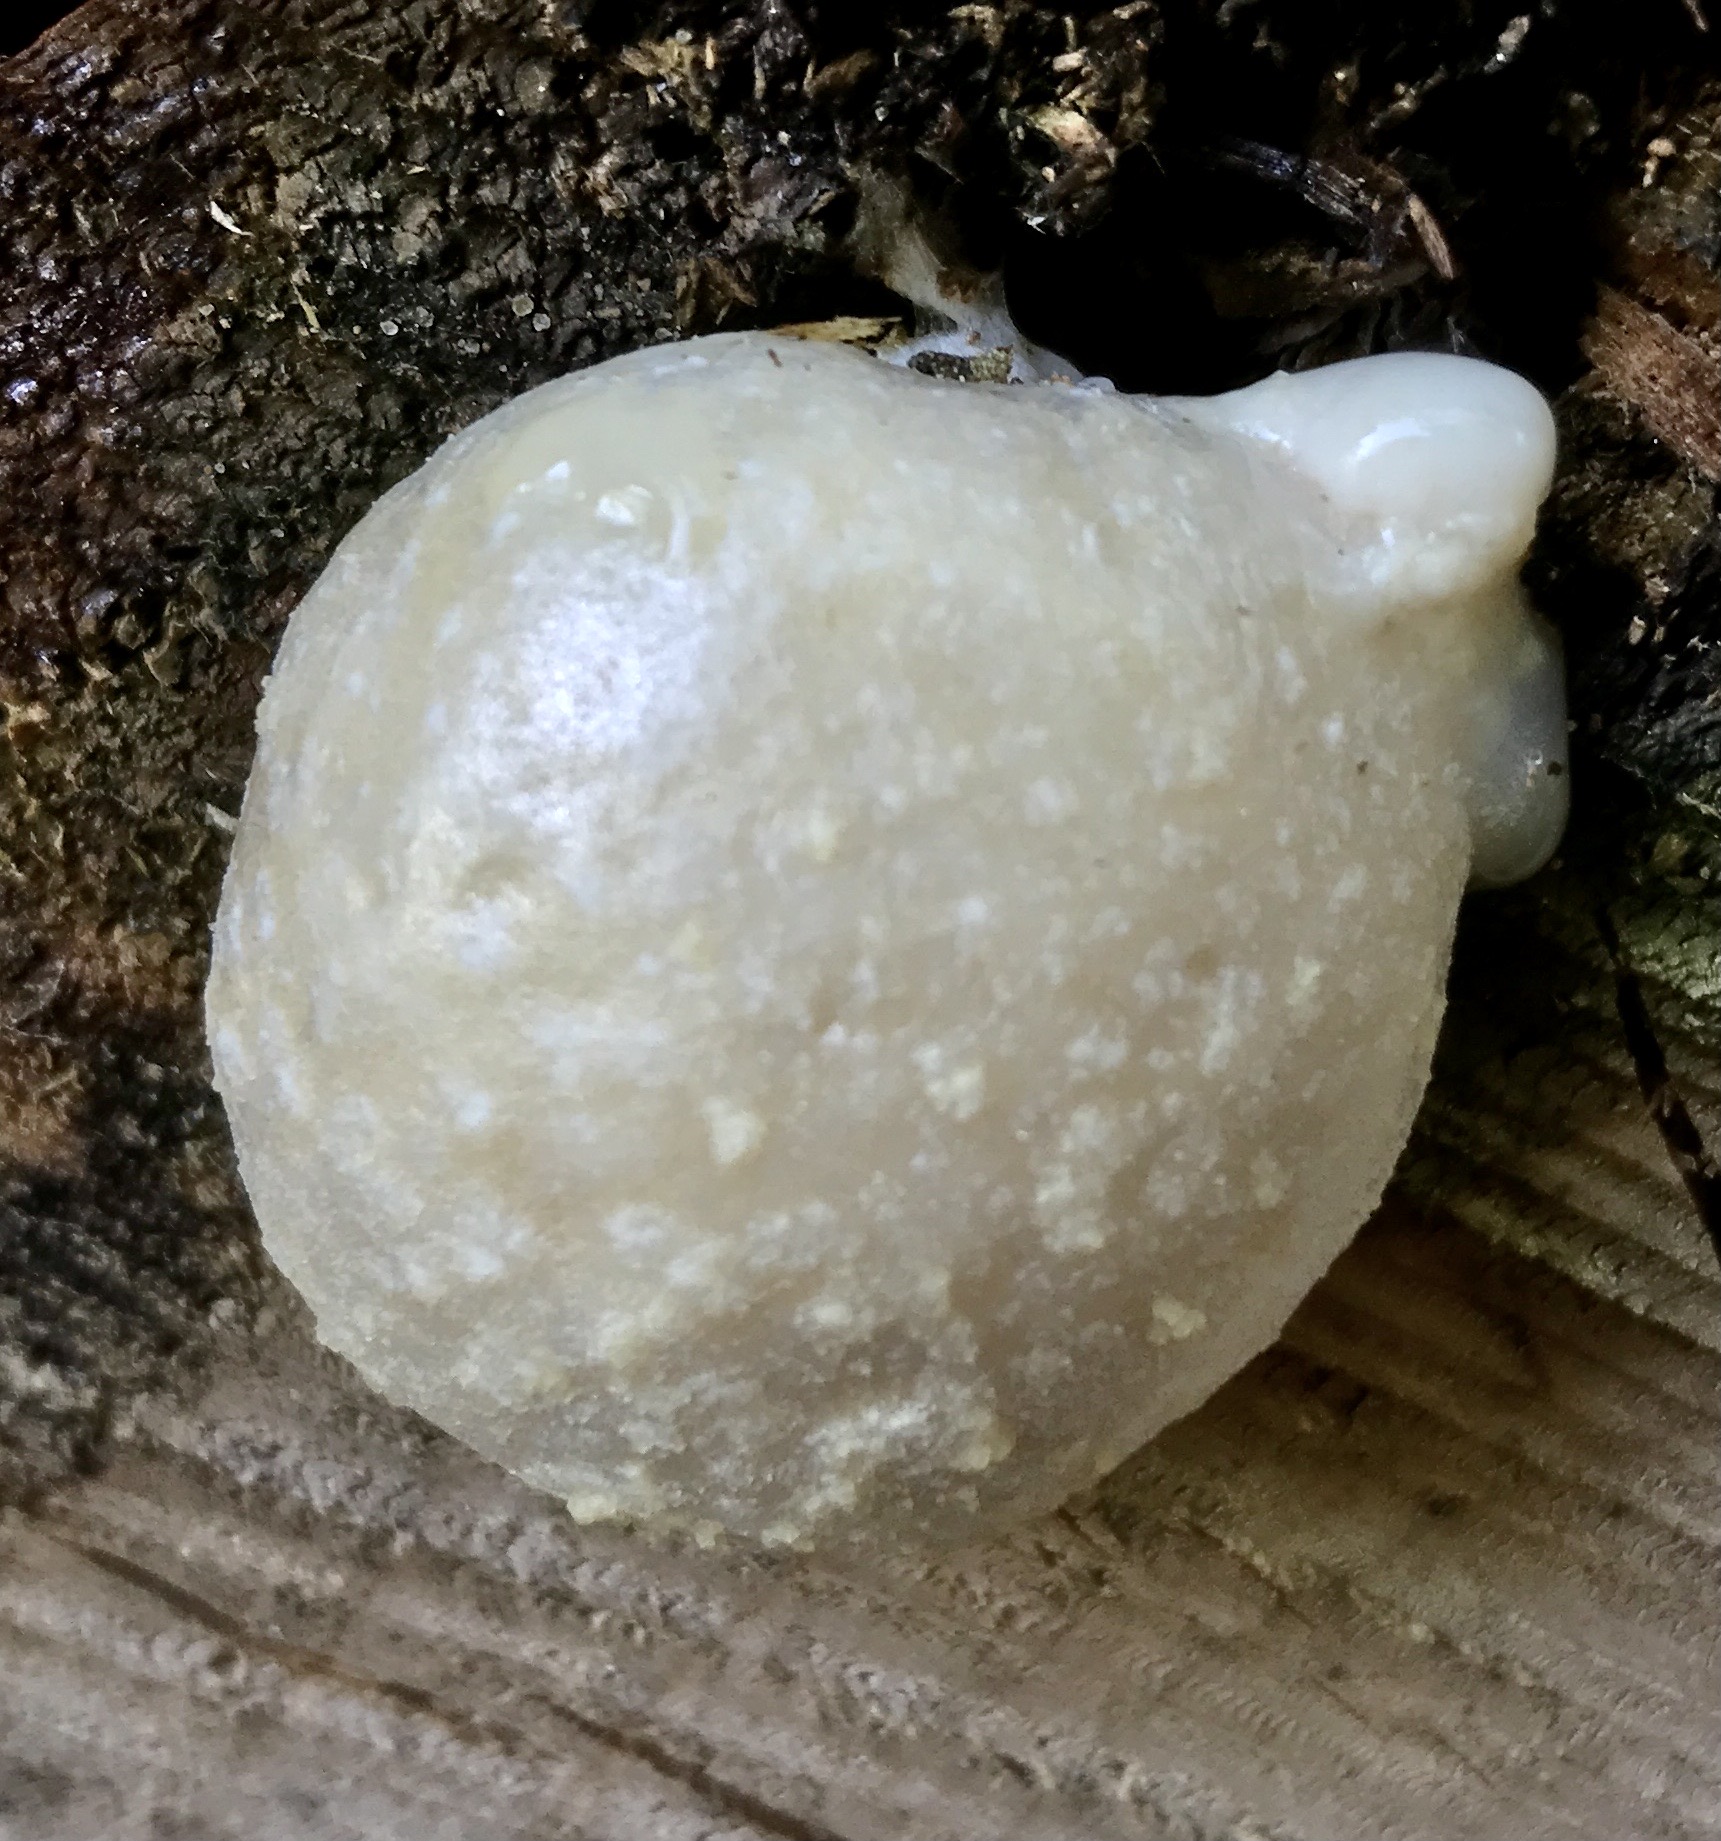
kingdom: Protozoa
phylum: Mycetozoa
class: Myxomycetes
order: Cribrariales
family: Tubiferaceae
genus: Reticularia
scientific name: Reticularia lycoperdon
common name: skinnende støvpude
